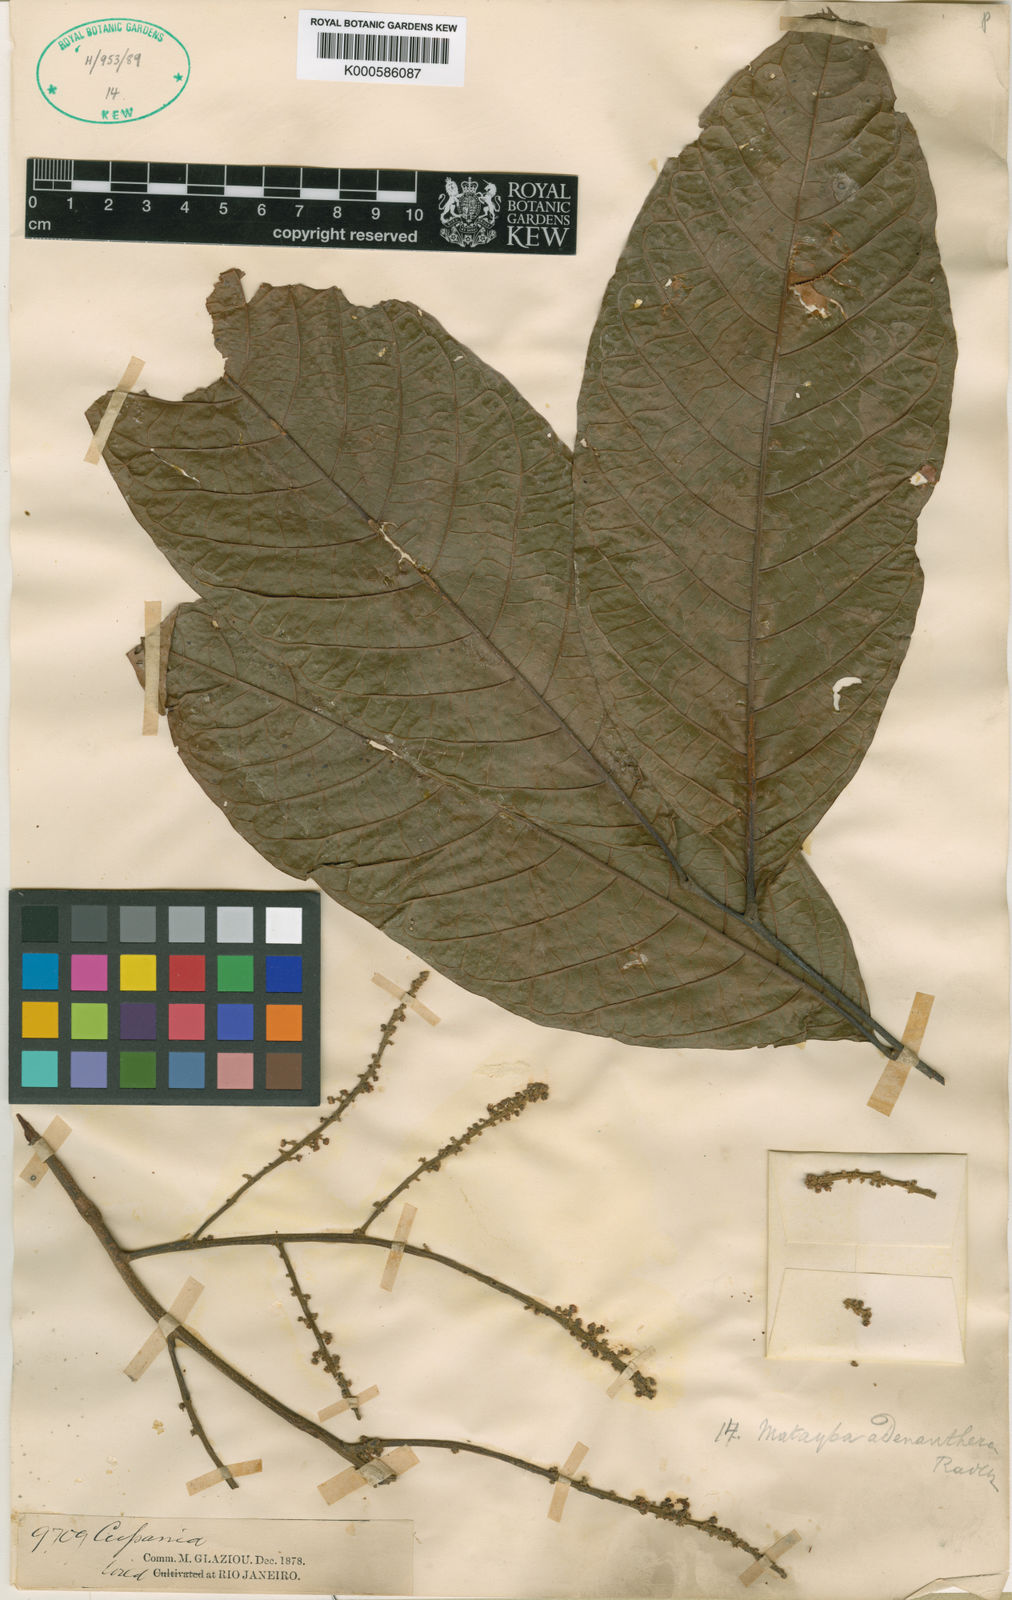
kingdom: Plantae
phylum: Tracheophyta
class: Magnoliopsida
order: Sapindales
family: Sapindaceae
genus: Matayba
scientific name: Matayba adenanthera
